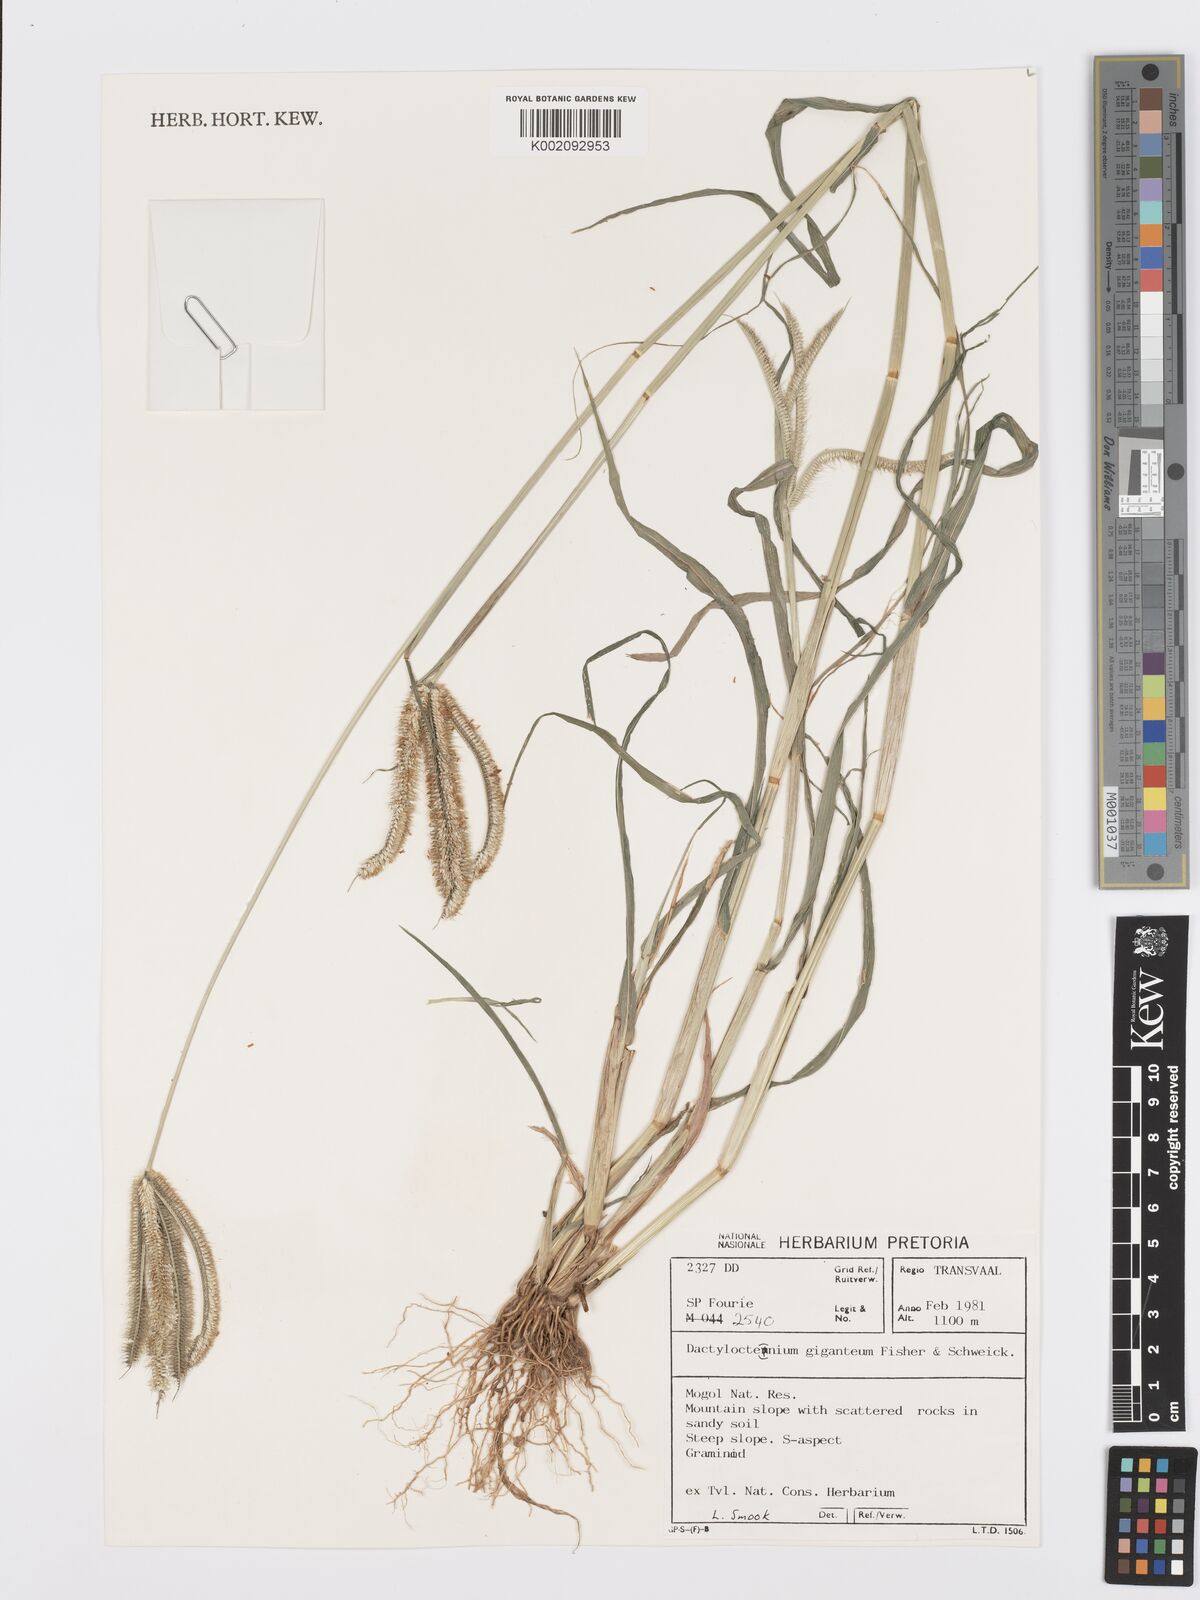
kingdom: Plantae
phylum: Tracheophyta
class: Liliopsida
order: Poales
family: Poaceae
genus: Dactyloctenium
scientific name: Dactyloctenium giganteum
